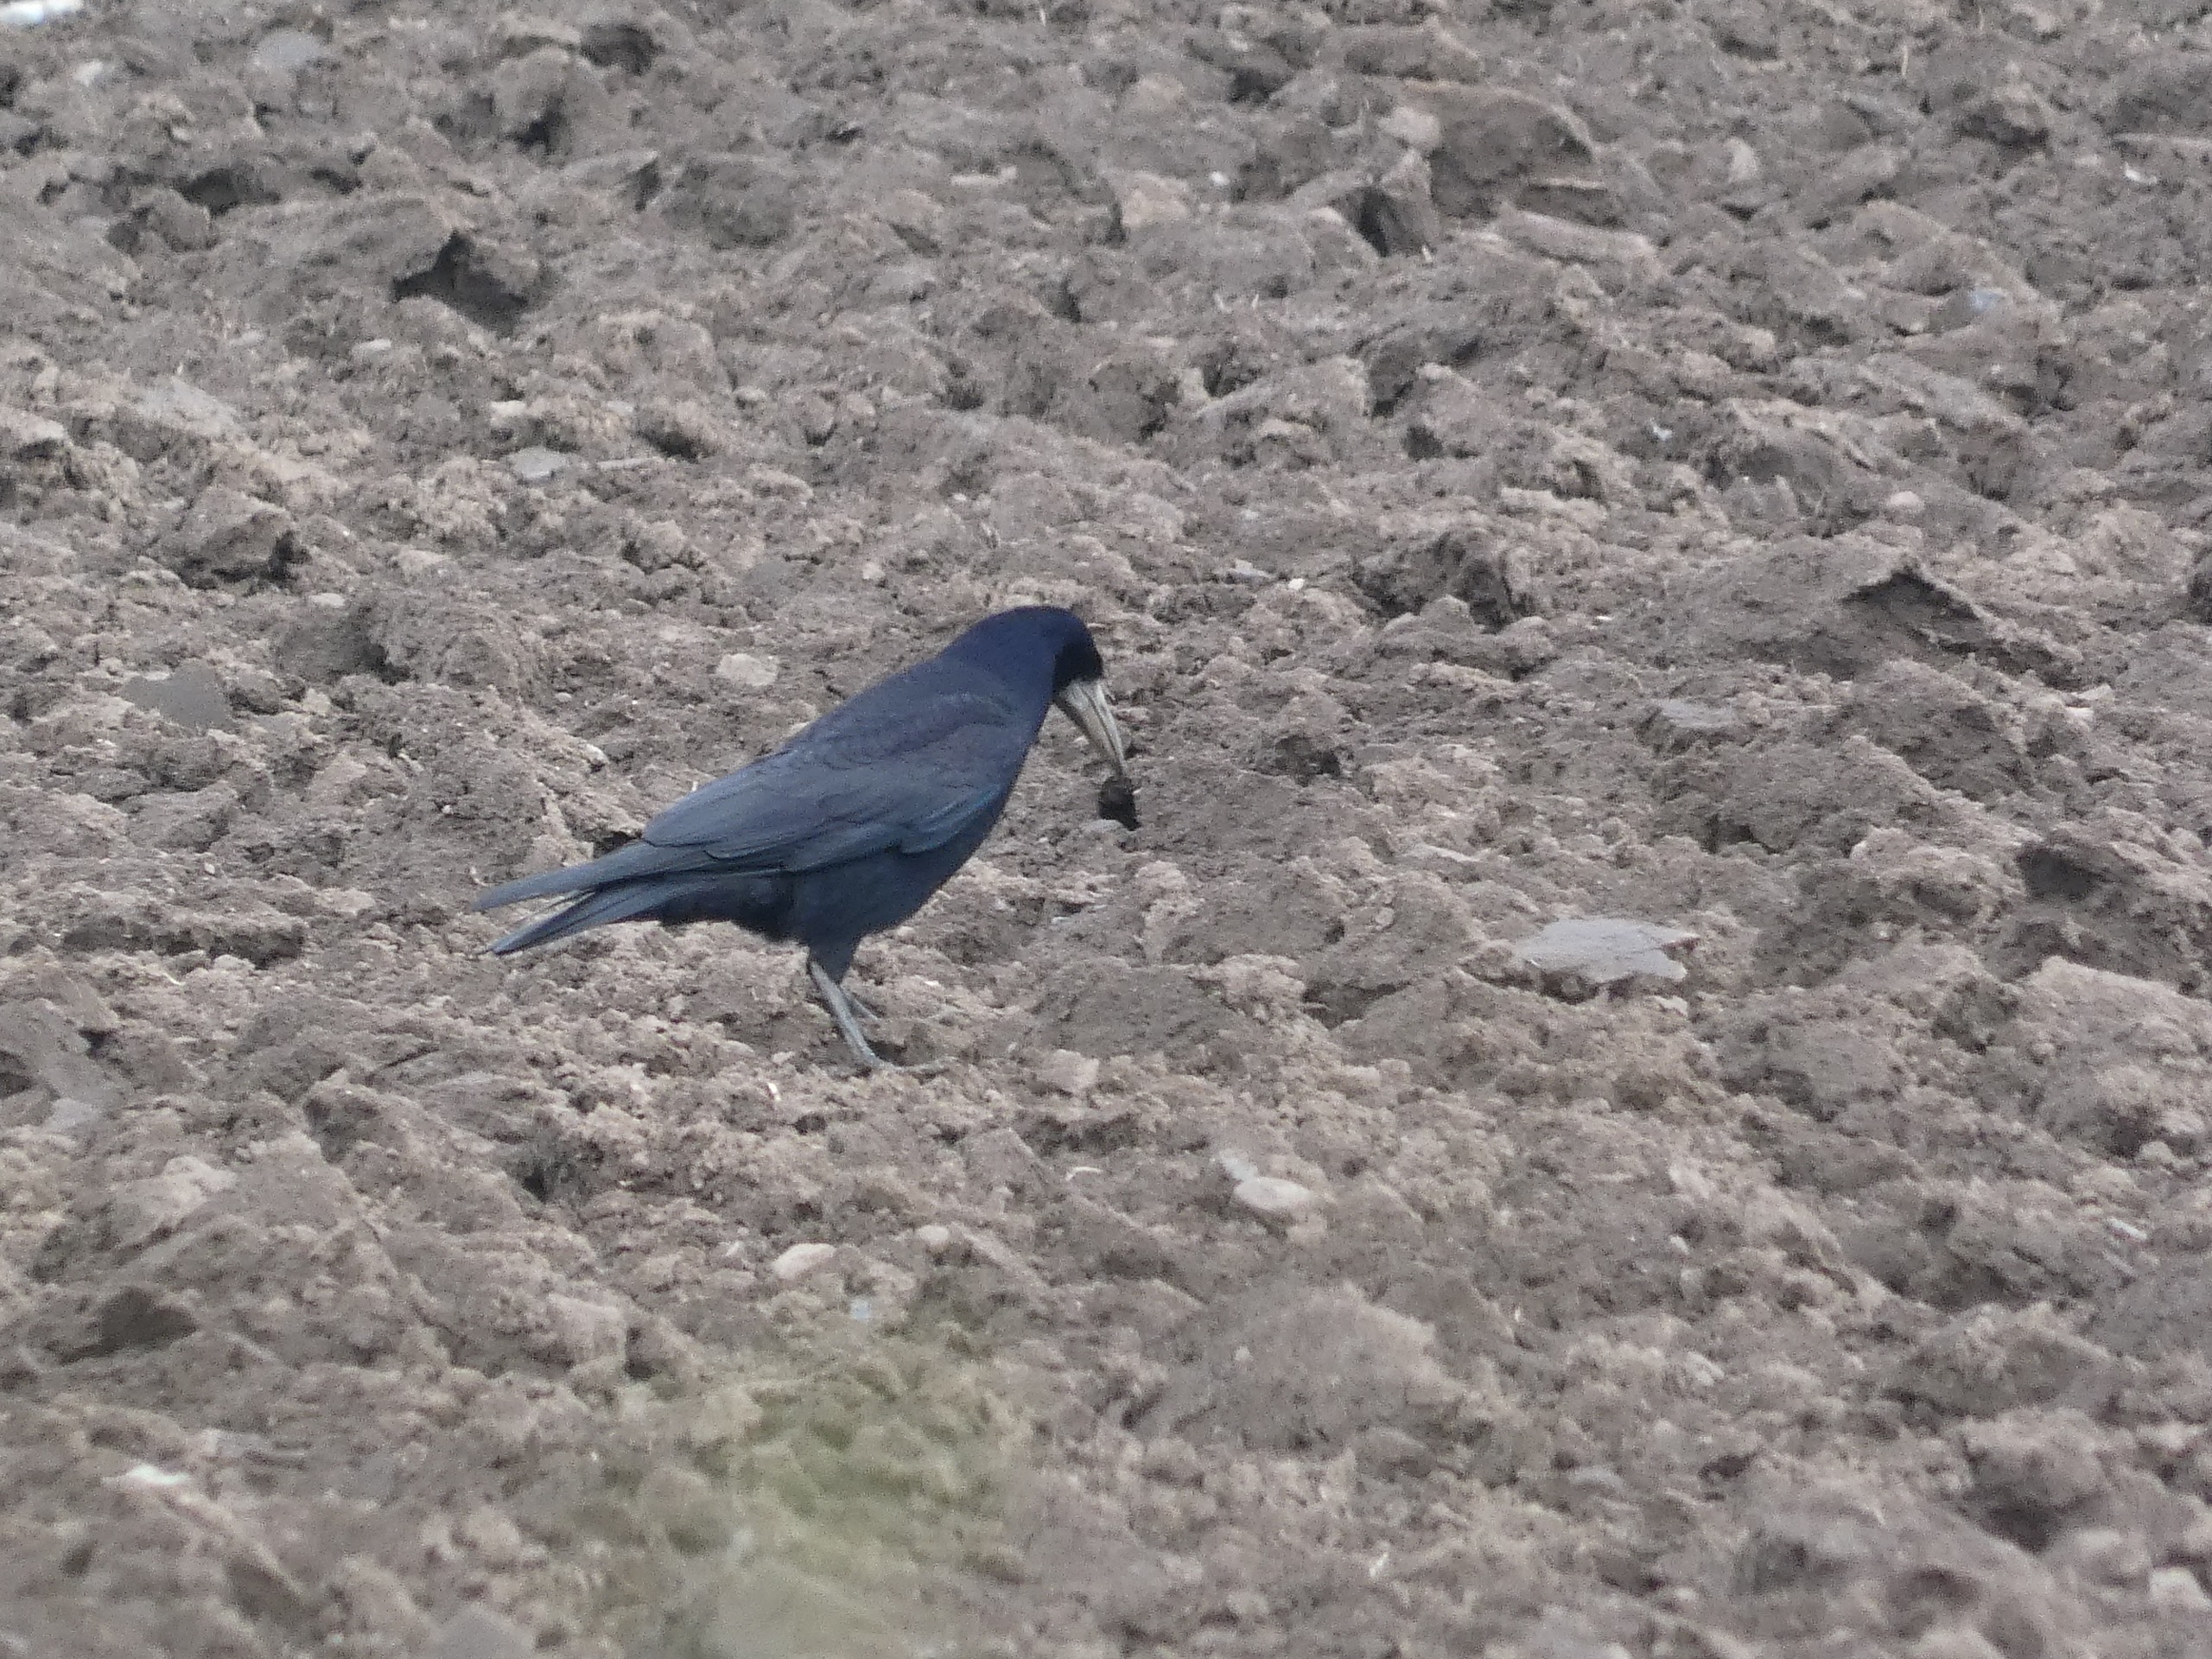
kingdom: Animalia
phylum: Chordata
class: Aves
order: Passeriformes
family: Corvidae
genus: Corvus
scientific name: Corvus frugilegus
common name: Råge
